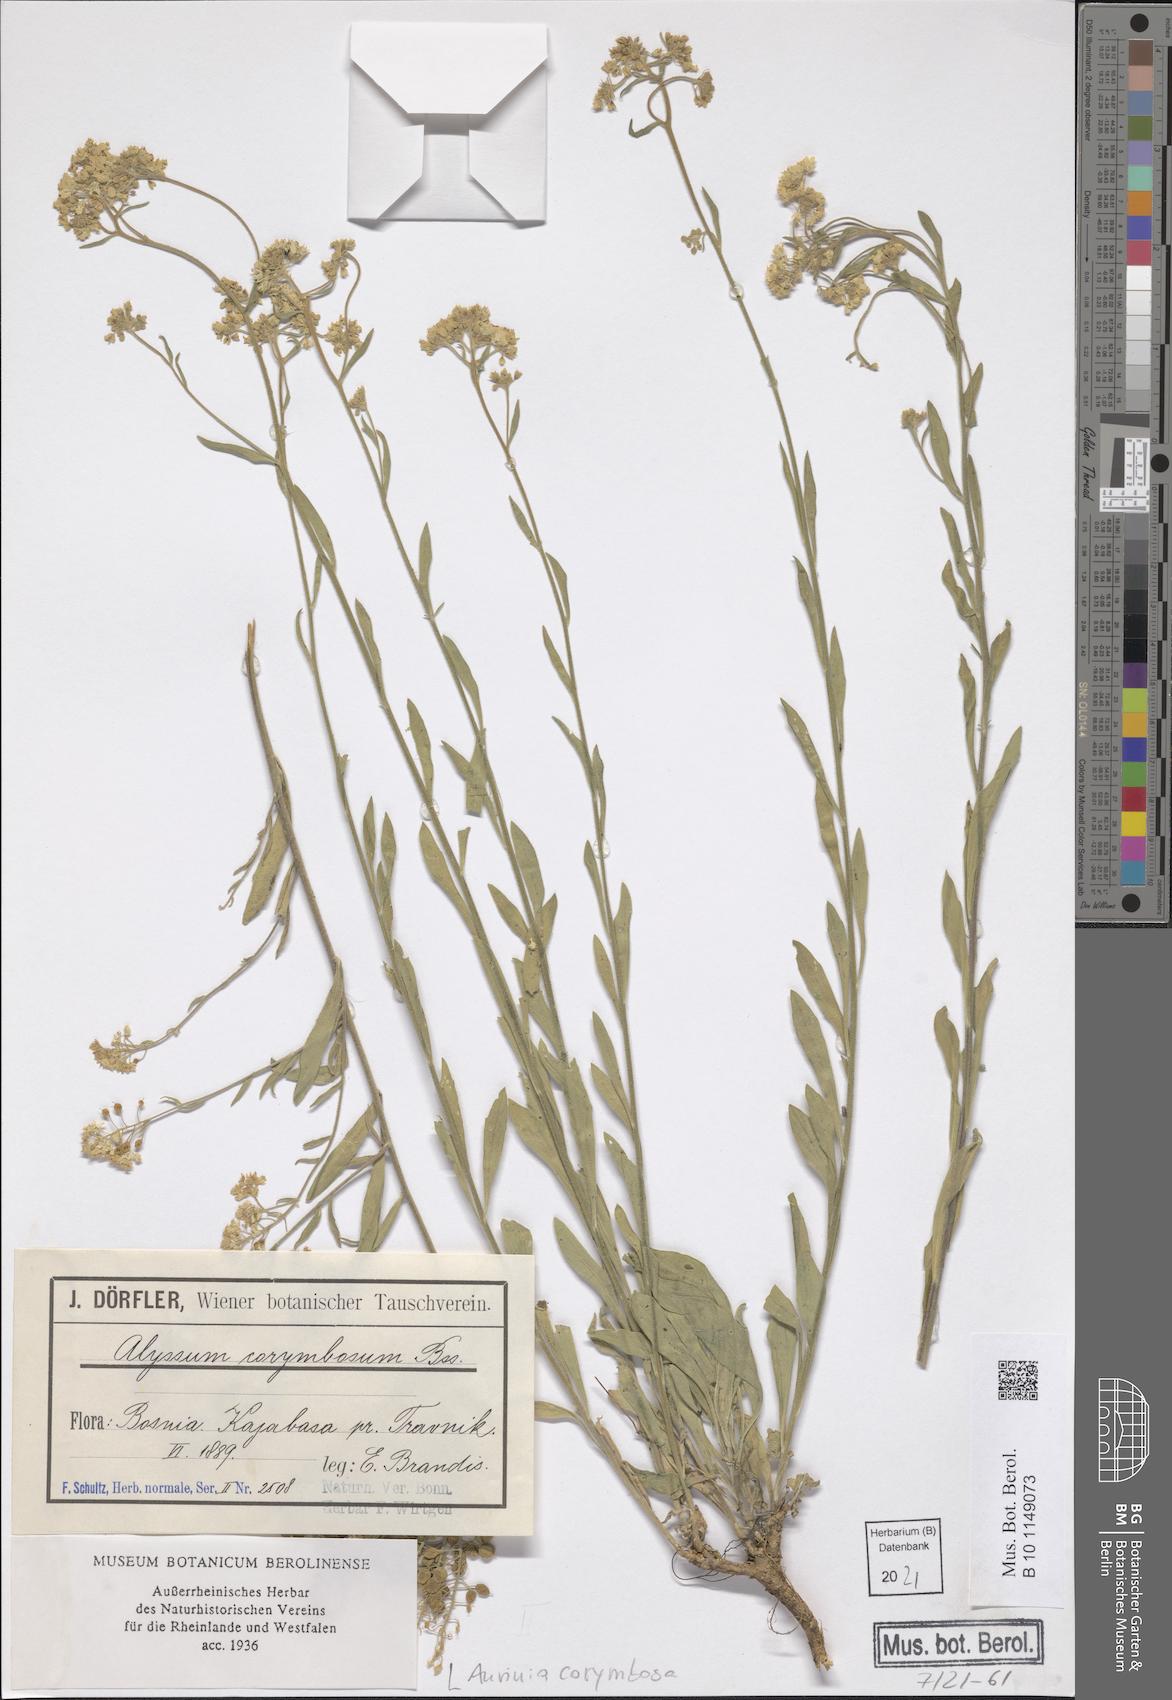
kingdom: Plantae
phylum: Tracheophyta
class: Magnoliopsida
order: Brassicales
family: Brassicaceae
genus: Aurinia
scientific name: Aurinia corymbosa
